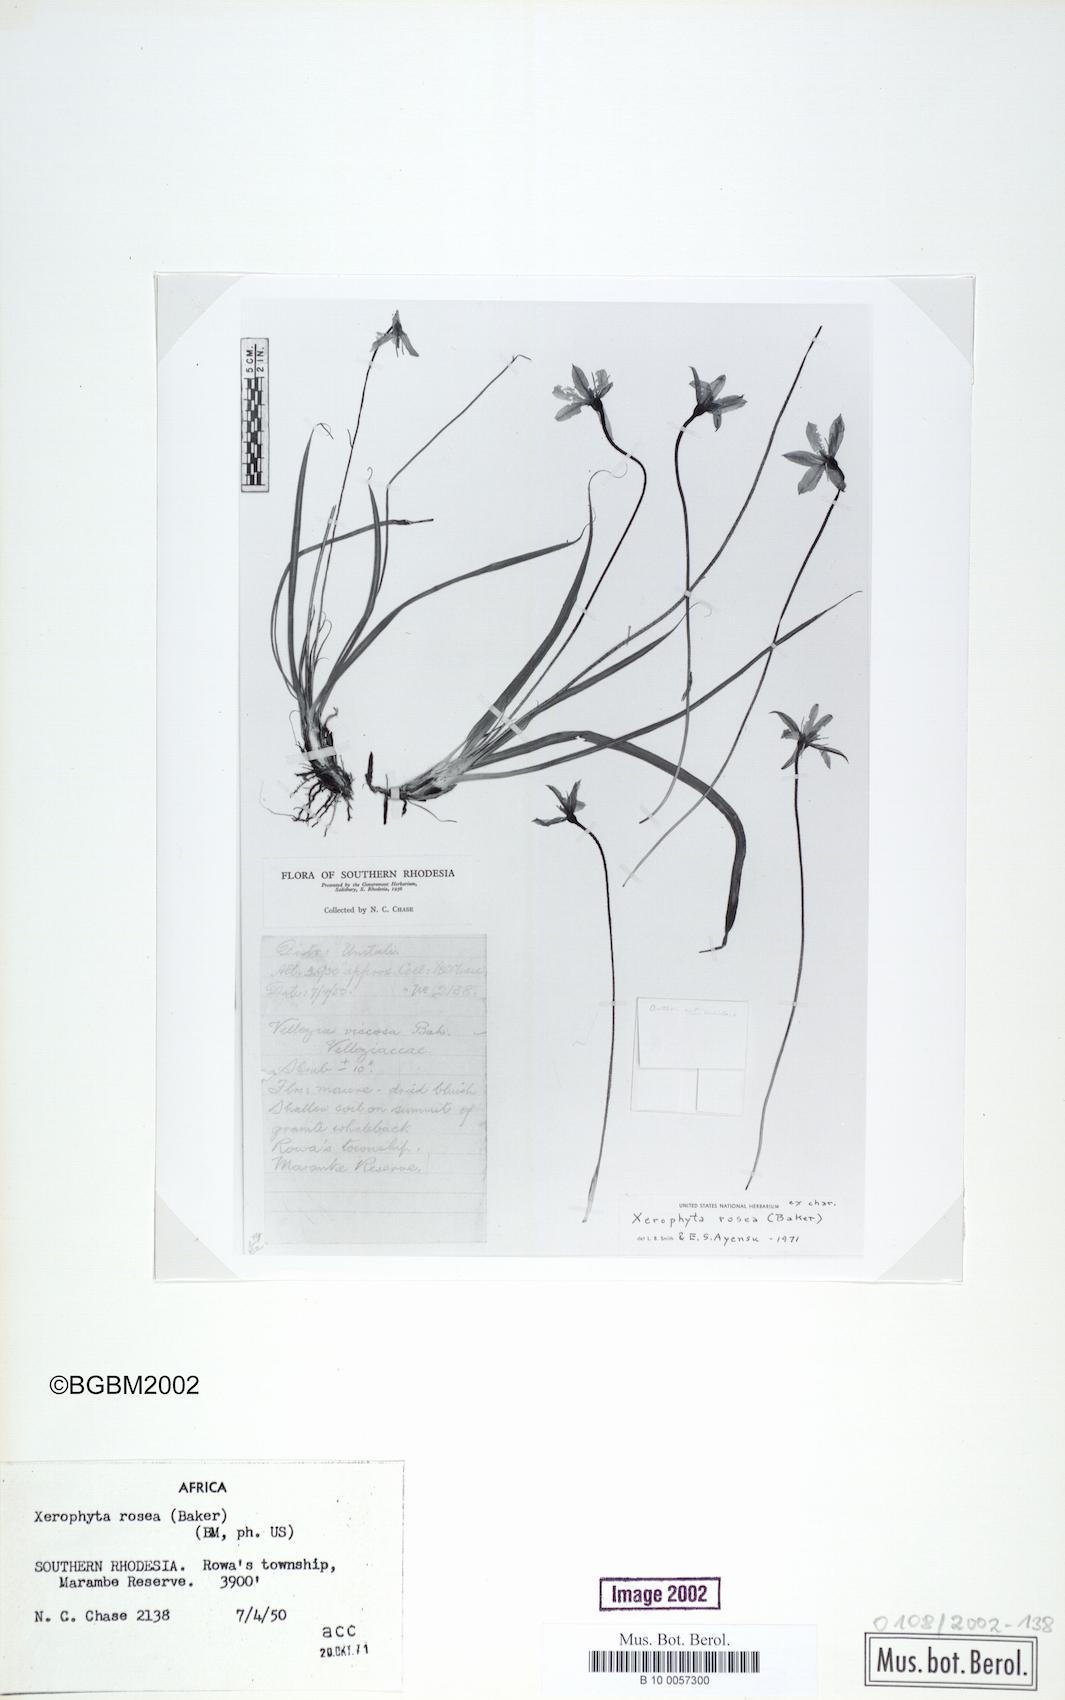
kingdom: Plantae
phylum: Tracheophyta
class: Liliopsida
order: Pandanales
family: Velloziaceae
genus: Xerophyta
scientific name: Xerophyta rosea
